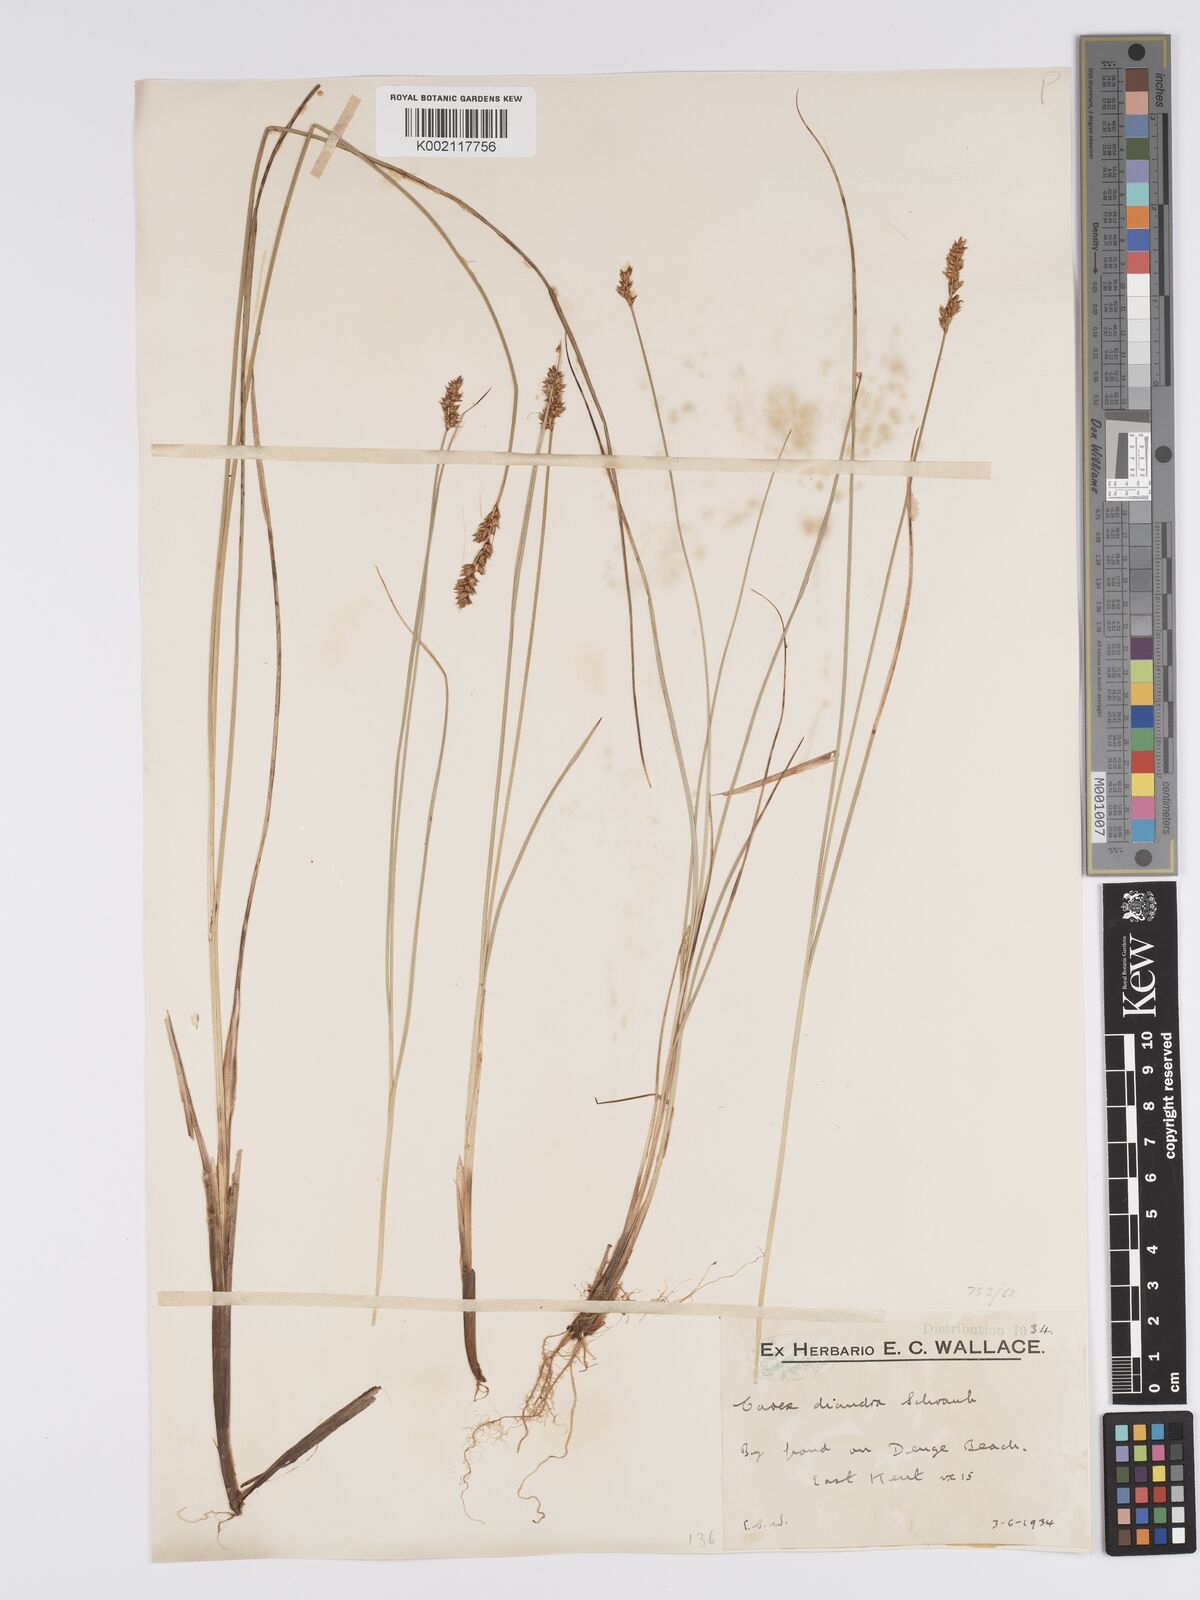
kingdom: Plantae
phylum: Tracheophyta
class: Liliopsida
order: Poales
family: Cyperaceae
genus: Carex
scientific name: Carex diandra
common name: Lesser tussock-sedge
